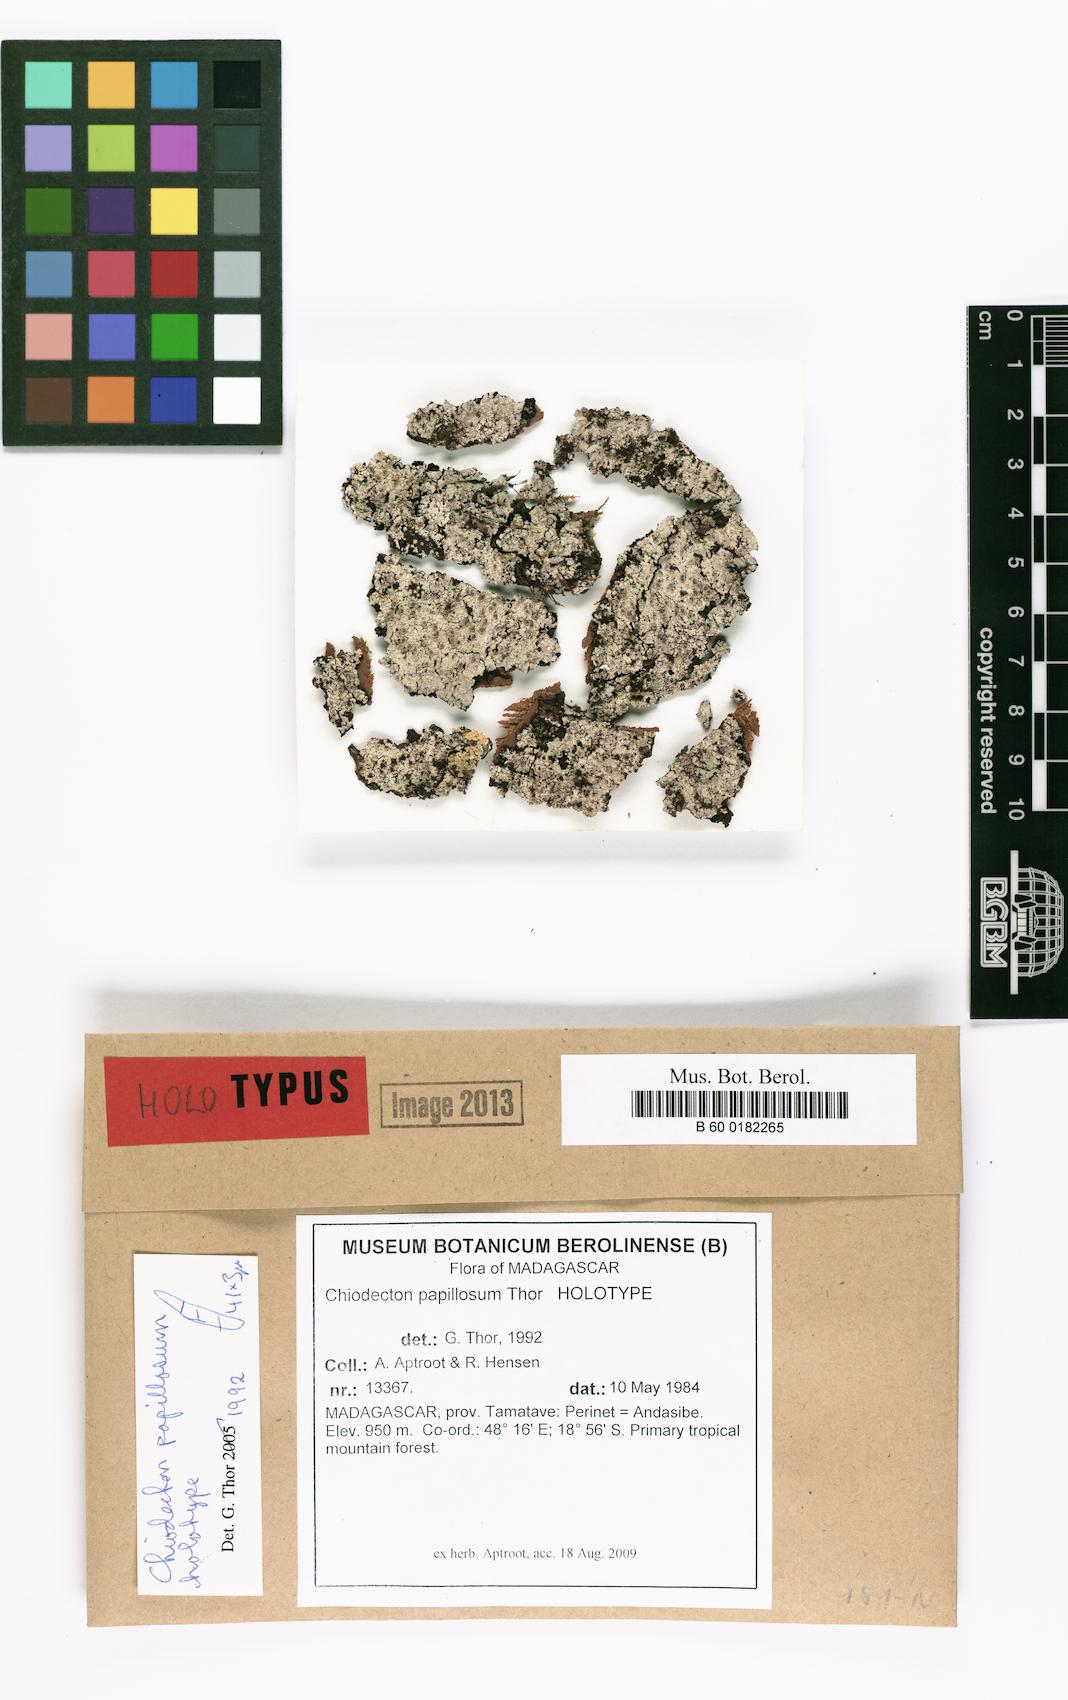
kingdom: Fungi
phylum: Ascomycota
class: Arthoniomycetes
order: Arthoniales
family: Roccellaceae
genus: Chiodecton
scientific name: Chiodecton
